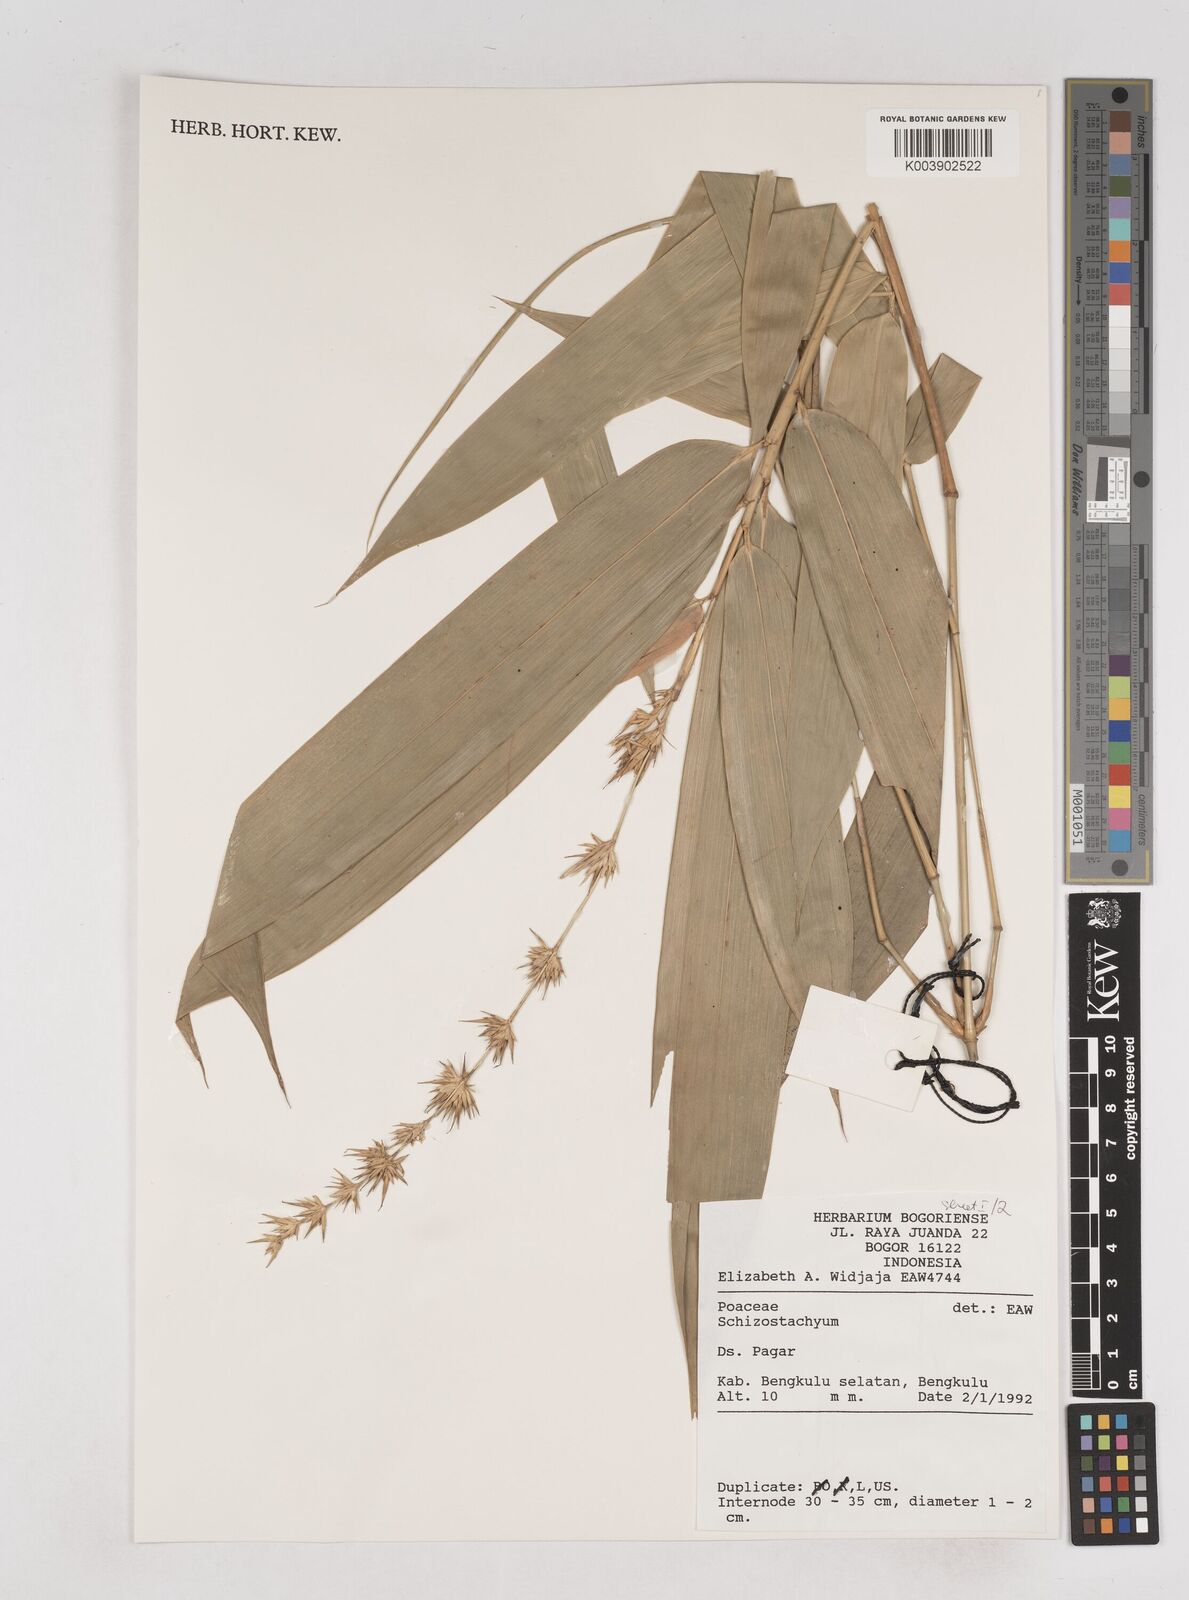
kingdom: Plantae
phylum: Tracheophyta
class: Liliopsida
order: Poales
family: Poaceae
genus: Schizostachyum
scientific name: Schizostachyum
